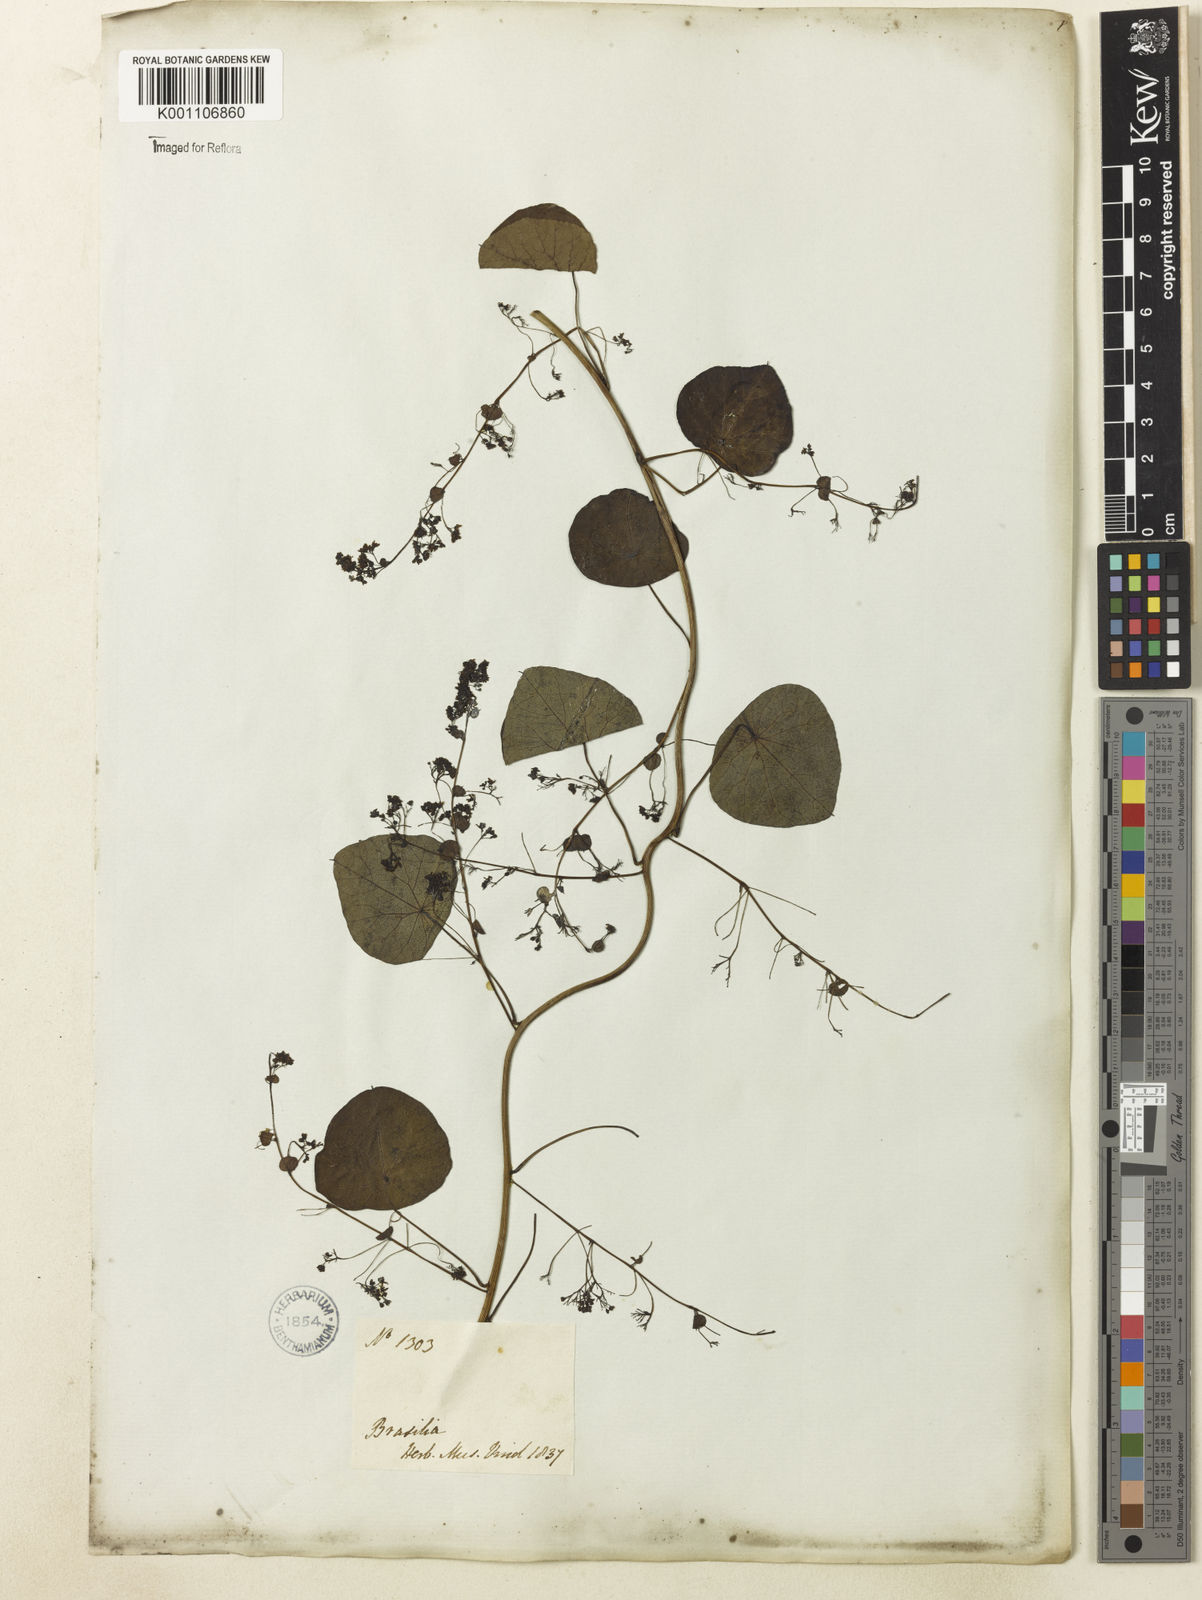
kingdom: Plantae
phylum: Tracheophyta
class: Magnoliopsida
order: Ranunculales
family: Menispermaceae
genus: Cissampelos
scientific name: Cissampelos glaberrima
